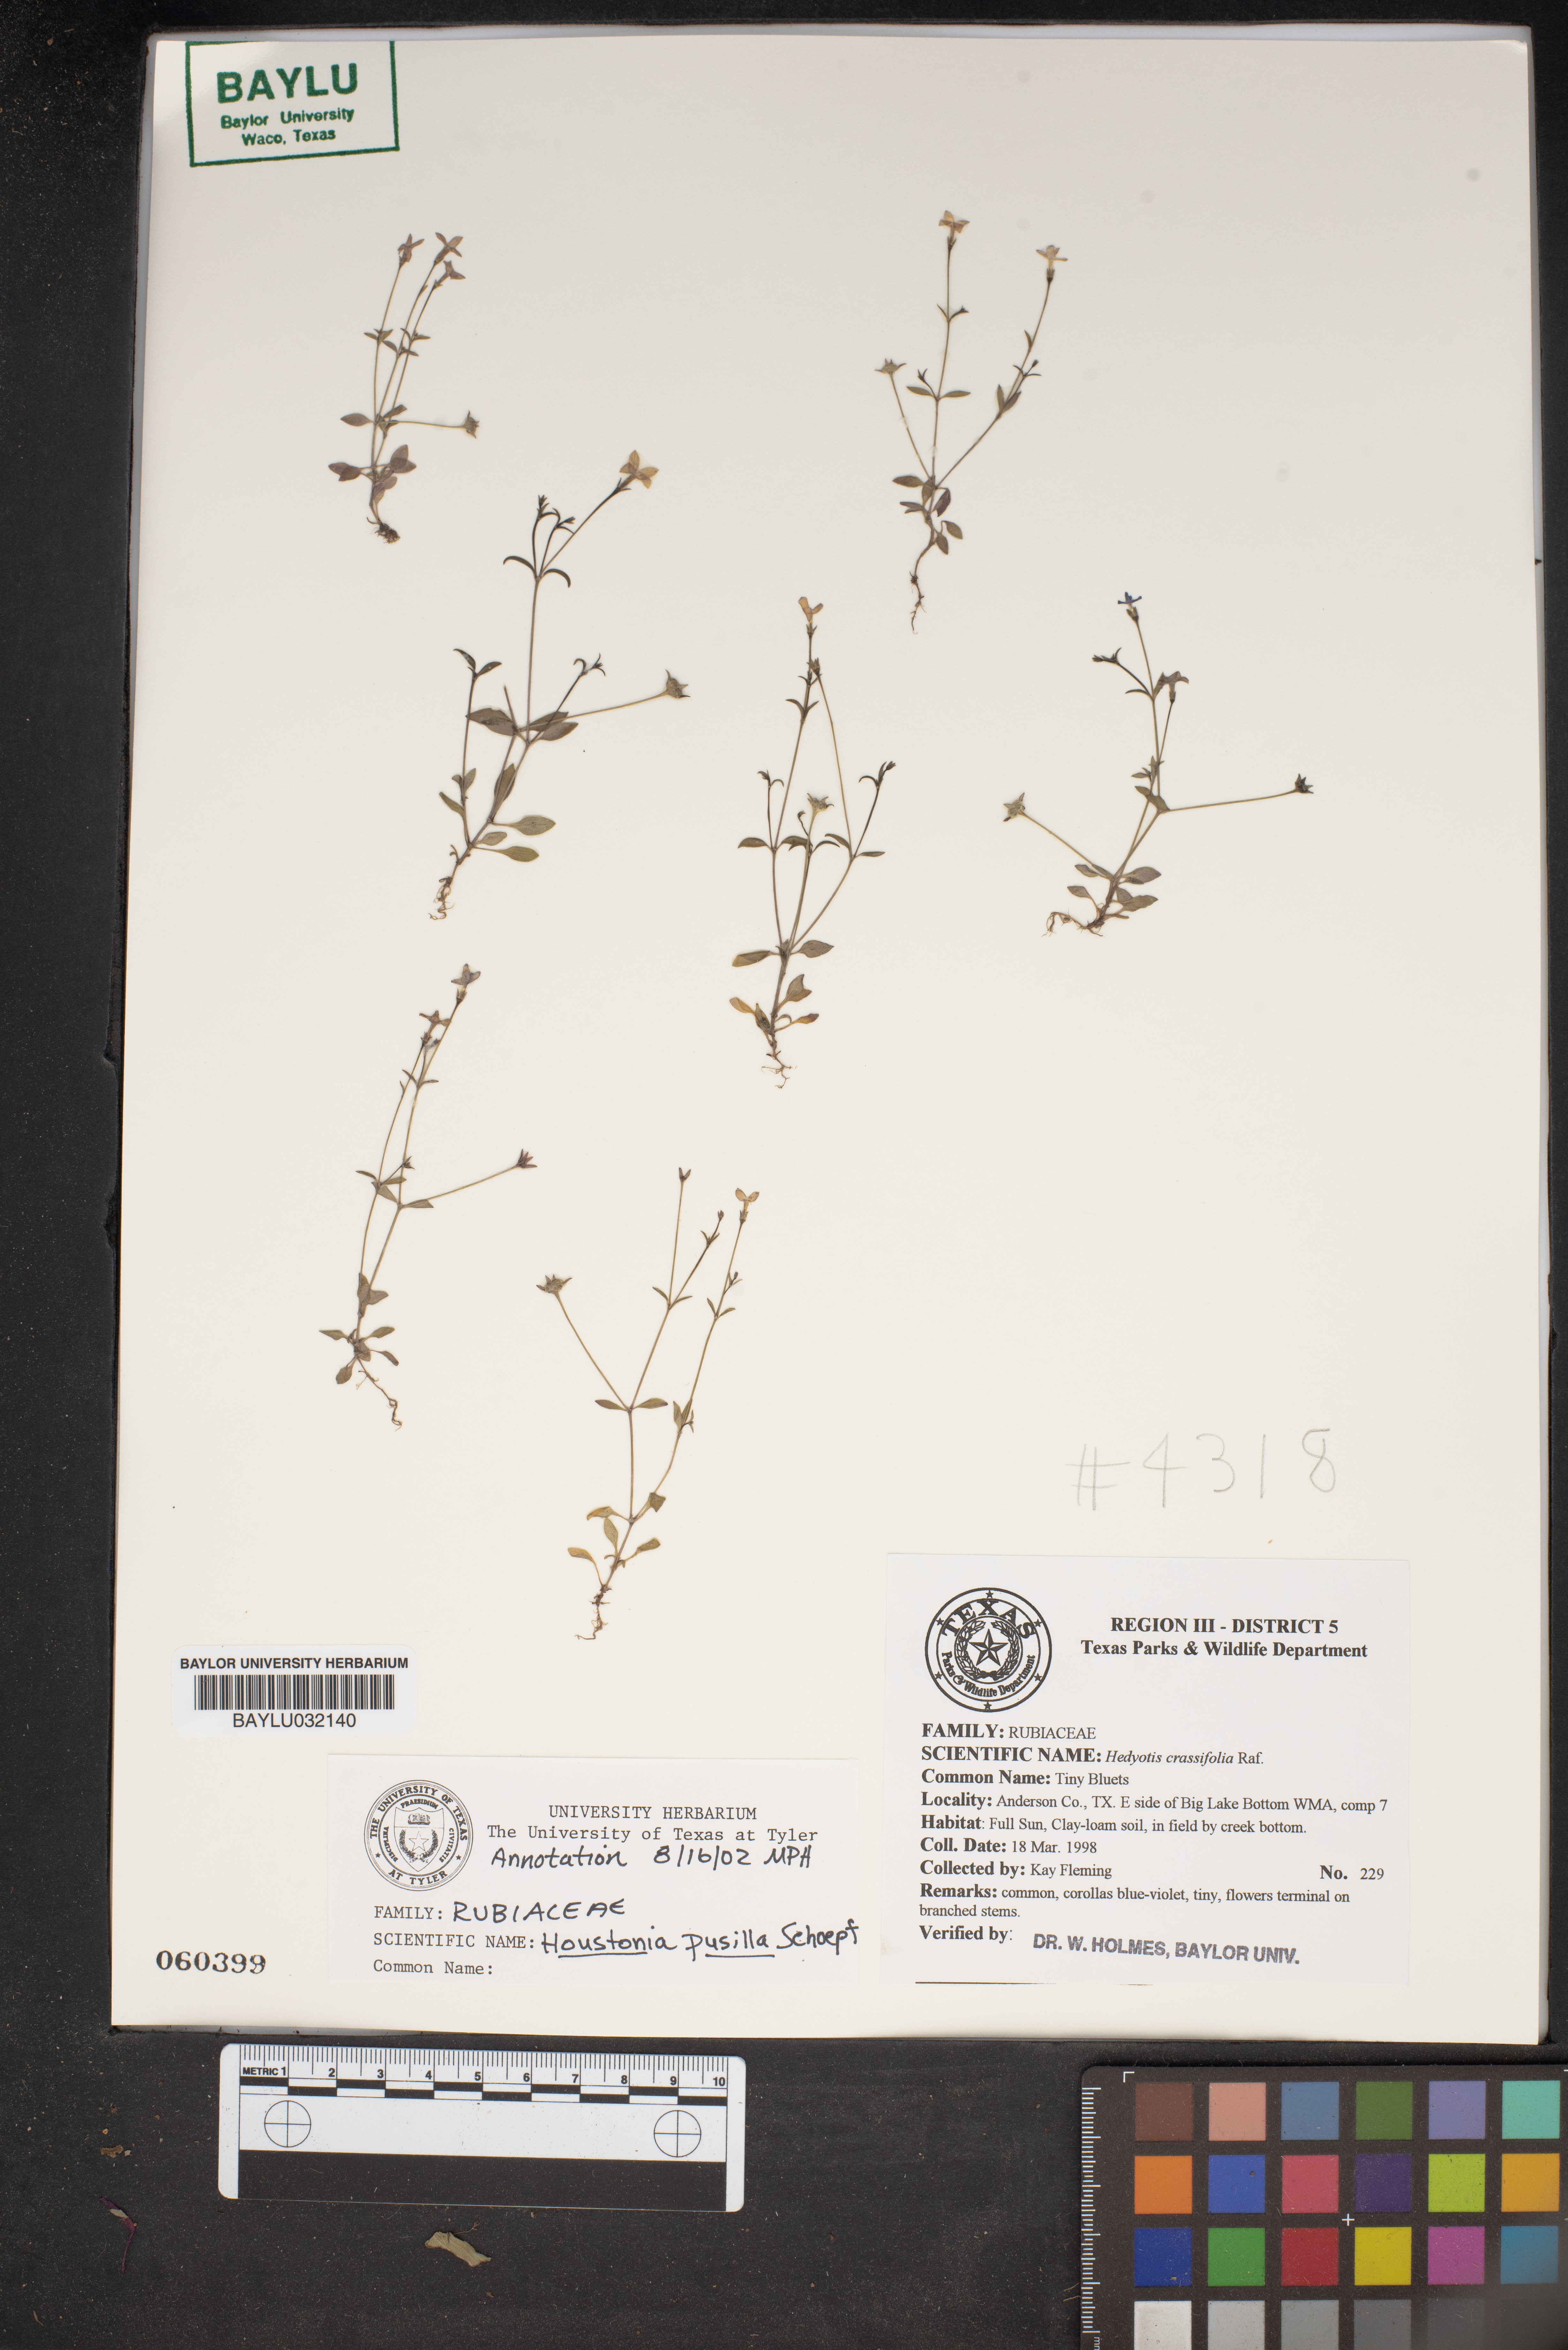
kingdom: Plantae
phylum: Tracheophyta
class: Magnoliopsida
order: Gentianales
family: Rubiaceae
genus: Houstonia
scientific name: Houstonia pusilla
